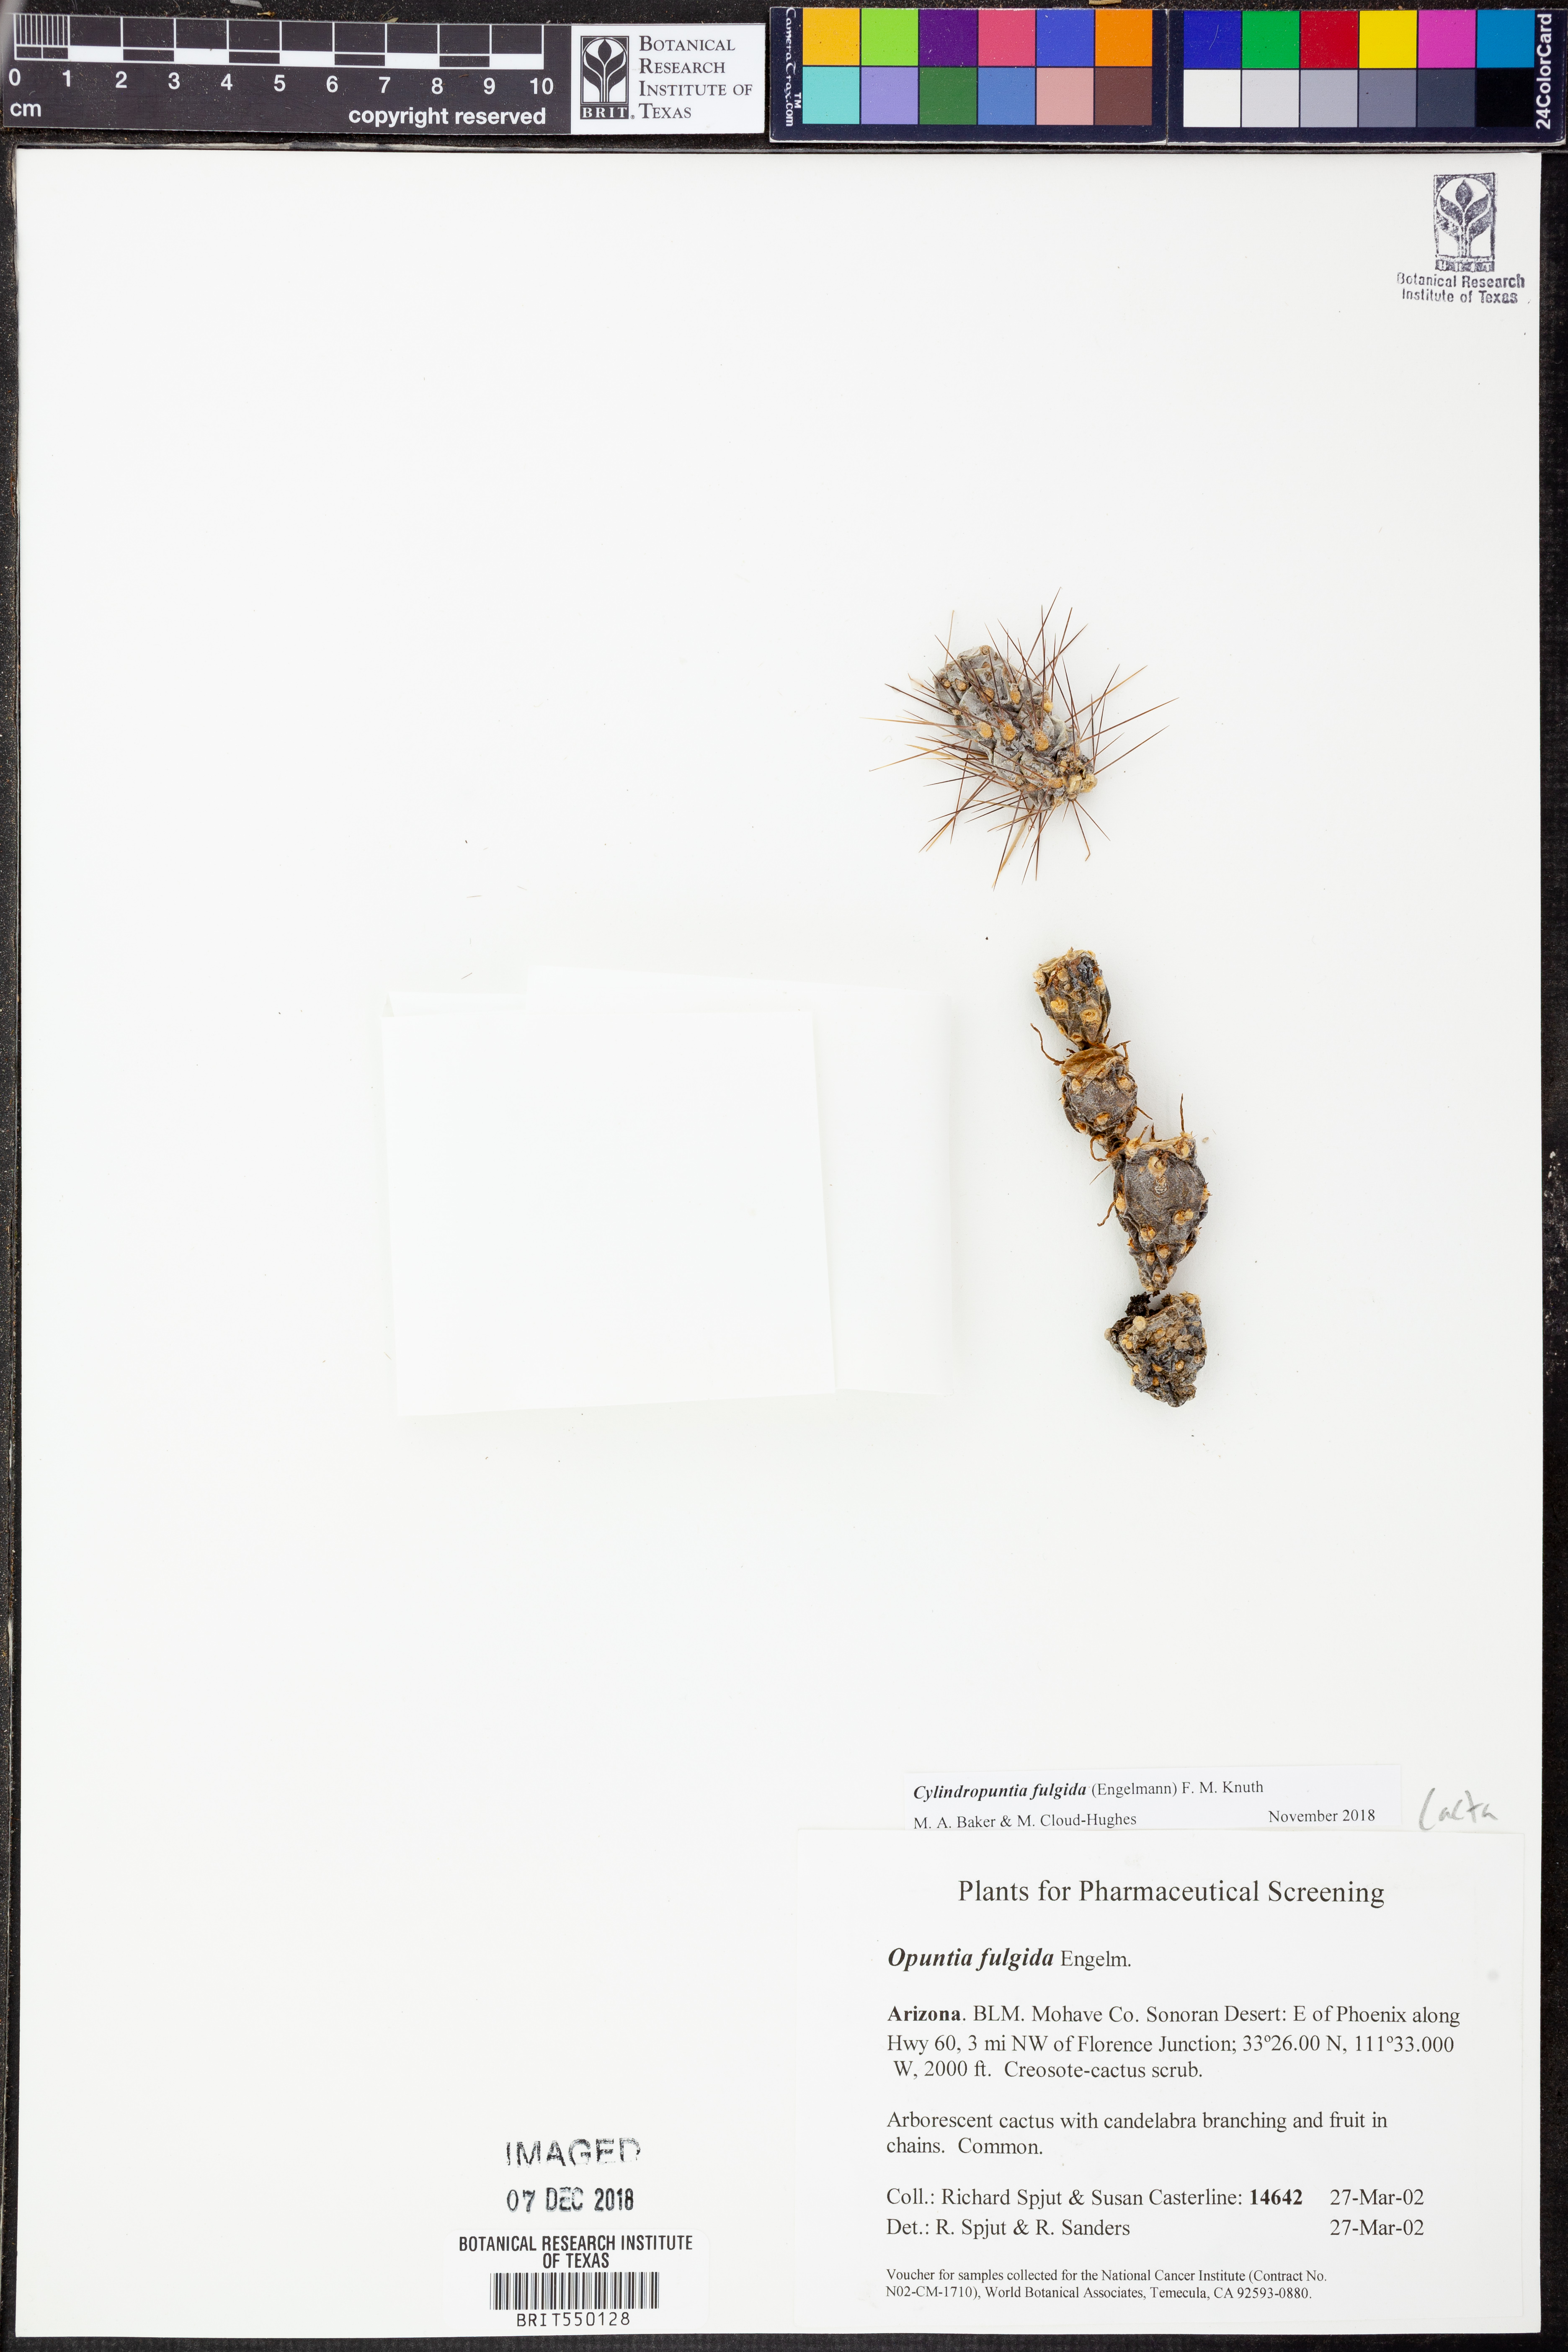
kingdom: Plantae
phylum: Tracheophyta
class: Magnoliopsida
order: Caryophyllales
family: Cactaceae
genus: Cylindropuntia
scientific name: Cylindropuntia fulgida
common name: Jumping cholla
